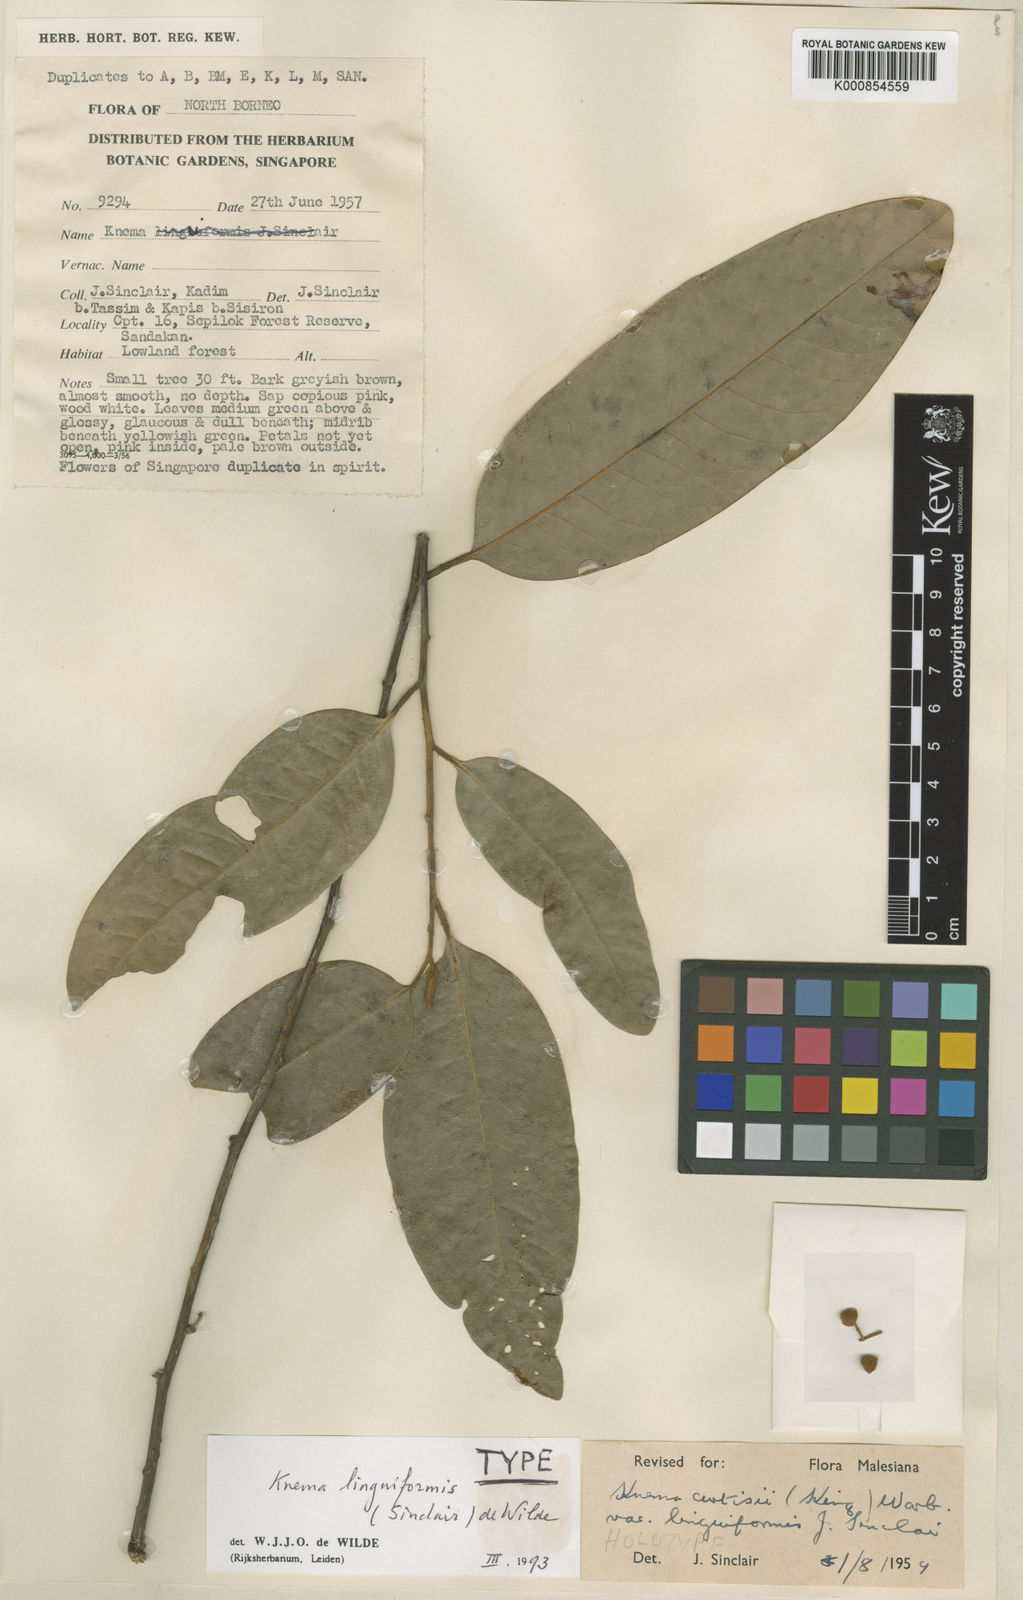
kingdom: Plantae
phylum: Tracheophyta
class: Magnoliopsida
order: Magnoliales
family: Myristicaceae
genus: Knema
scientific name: Knema linguiformis
